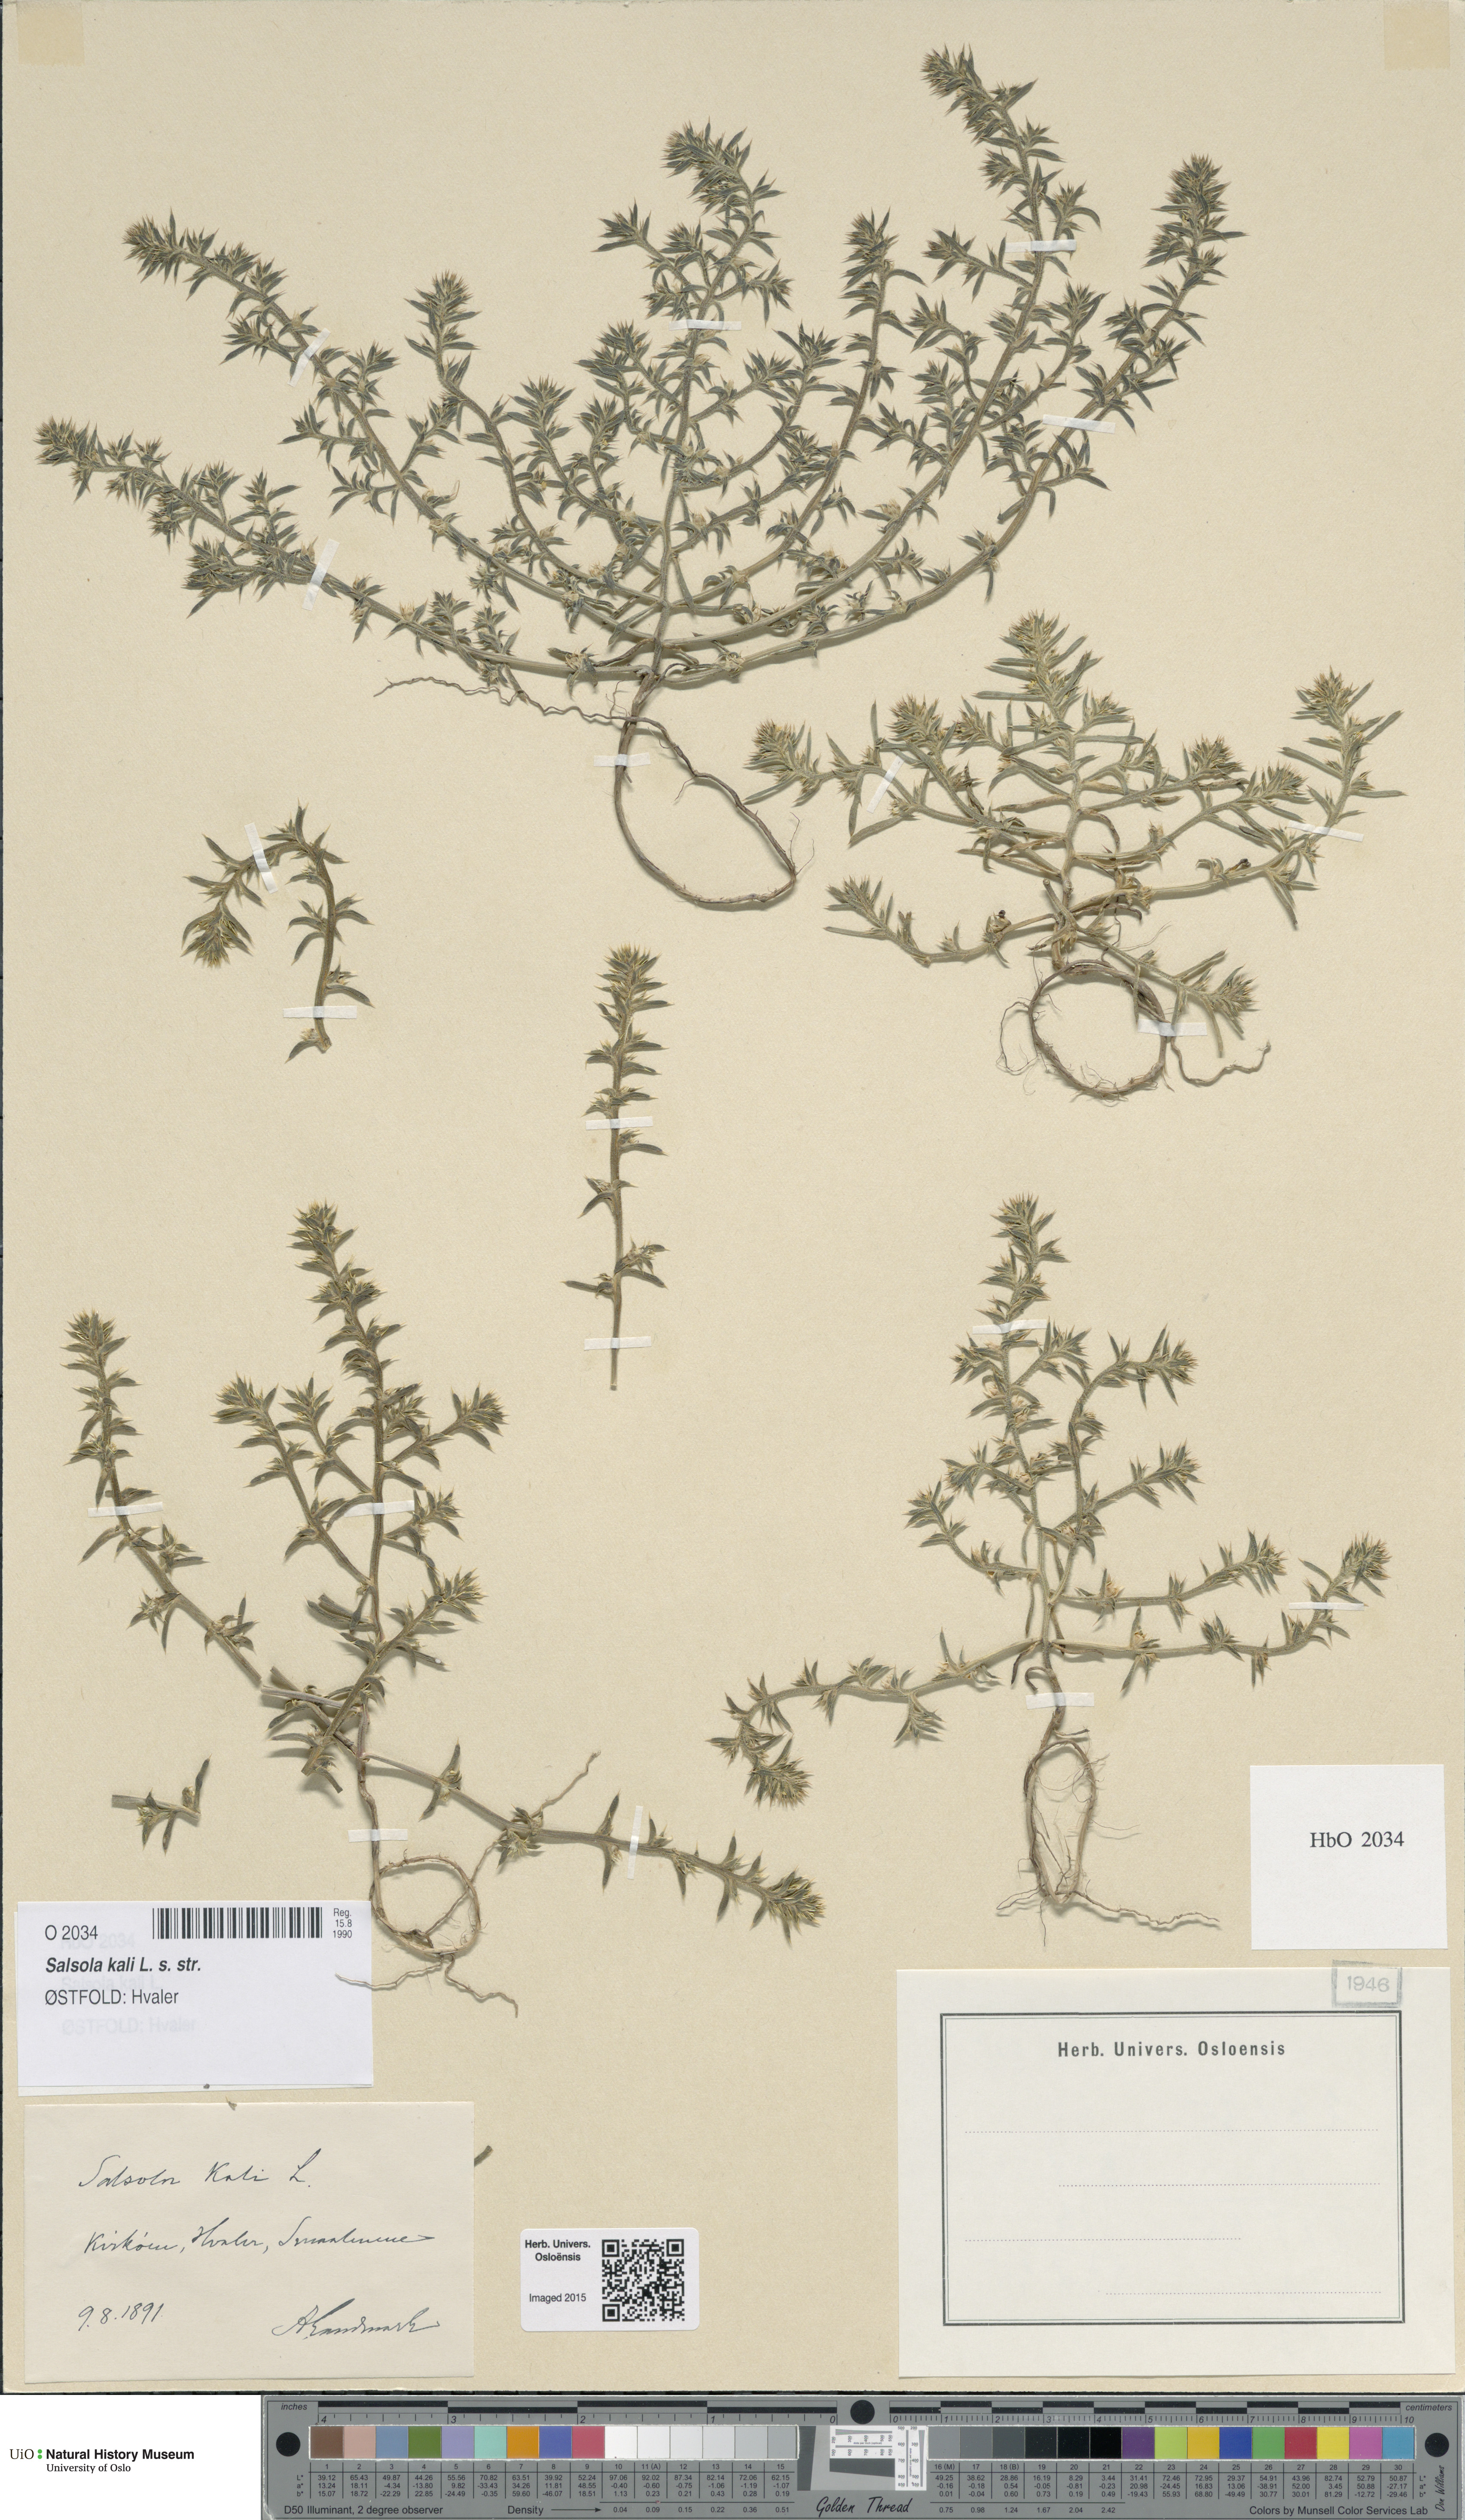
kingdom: Plantae
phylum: Tracheophyta
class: Magnoliopsida
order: Caryophyllales
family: Amaranthaceae
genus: Salsola
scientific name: Salsola kali
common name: Saltwort
